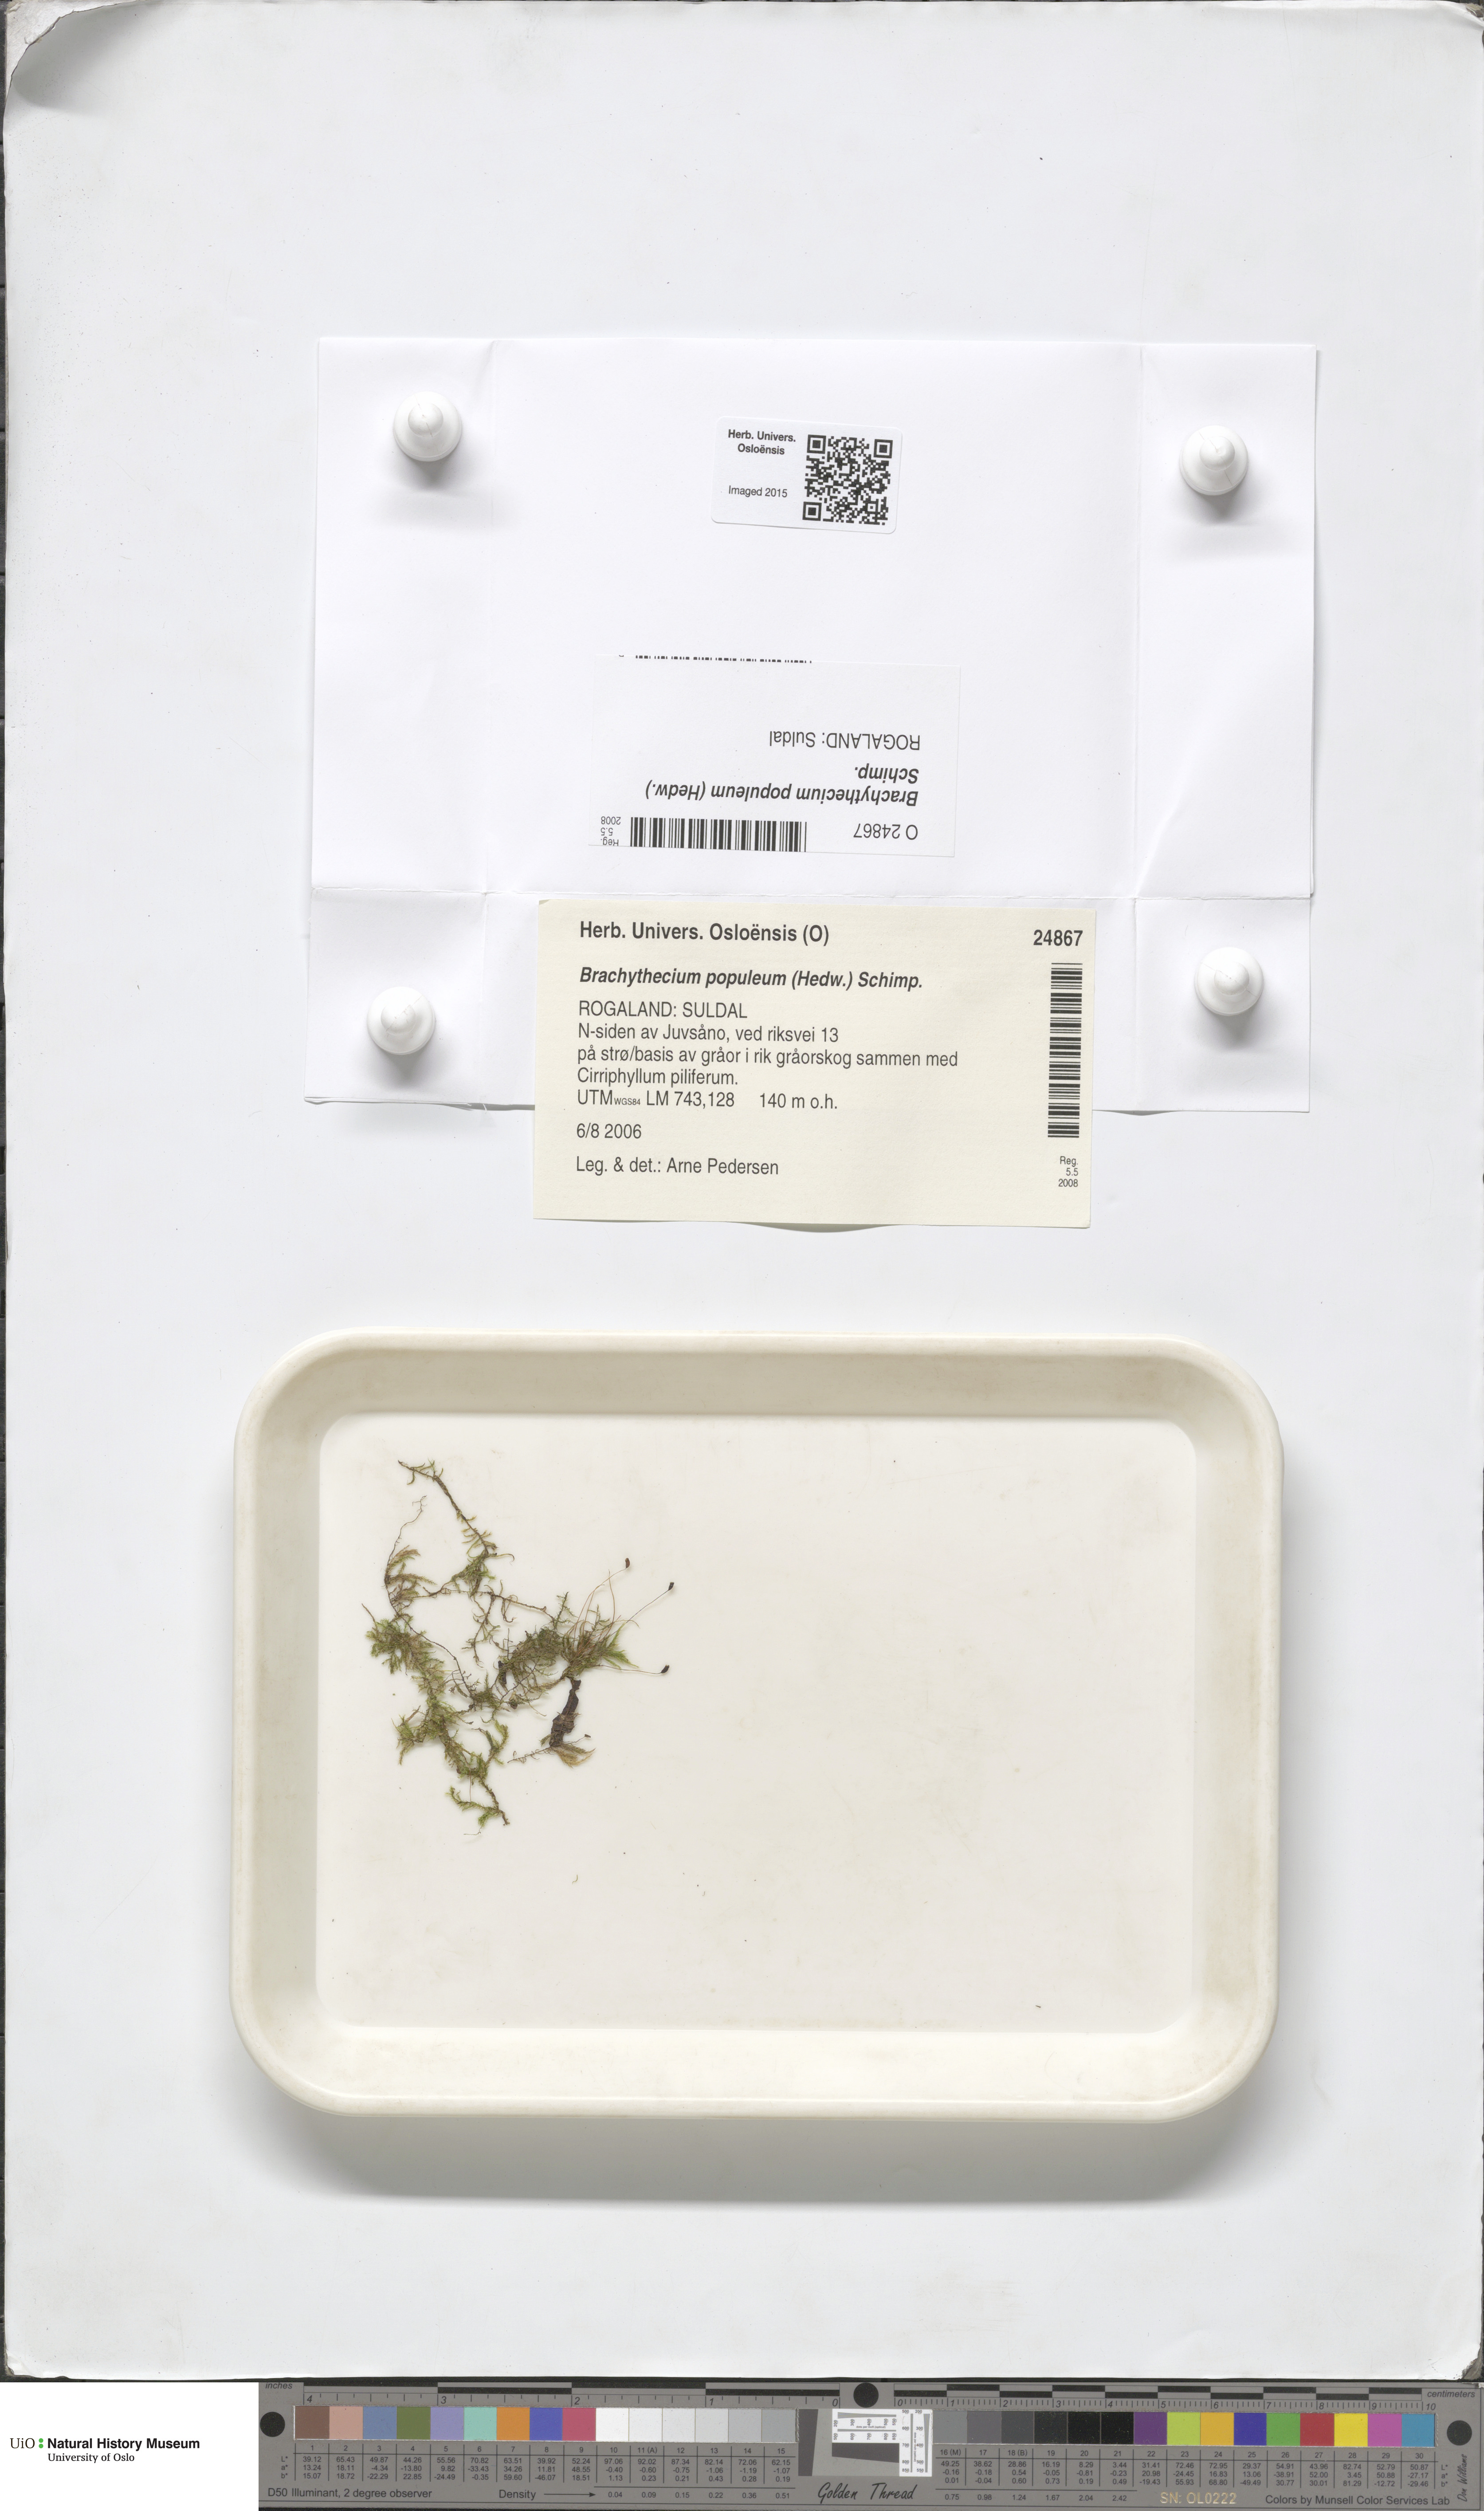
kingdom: Plantae
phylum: Bryophyta
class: Bryopsida
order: Hypnales
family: Brachytheciaceae
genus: Sciuro-hypnum
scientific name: Sciuro-hypnum plumosum
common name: Rusty feather-moss
